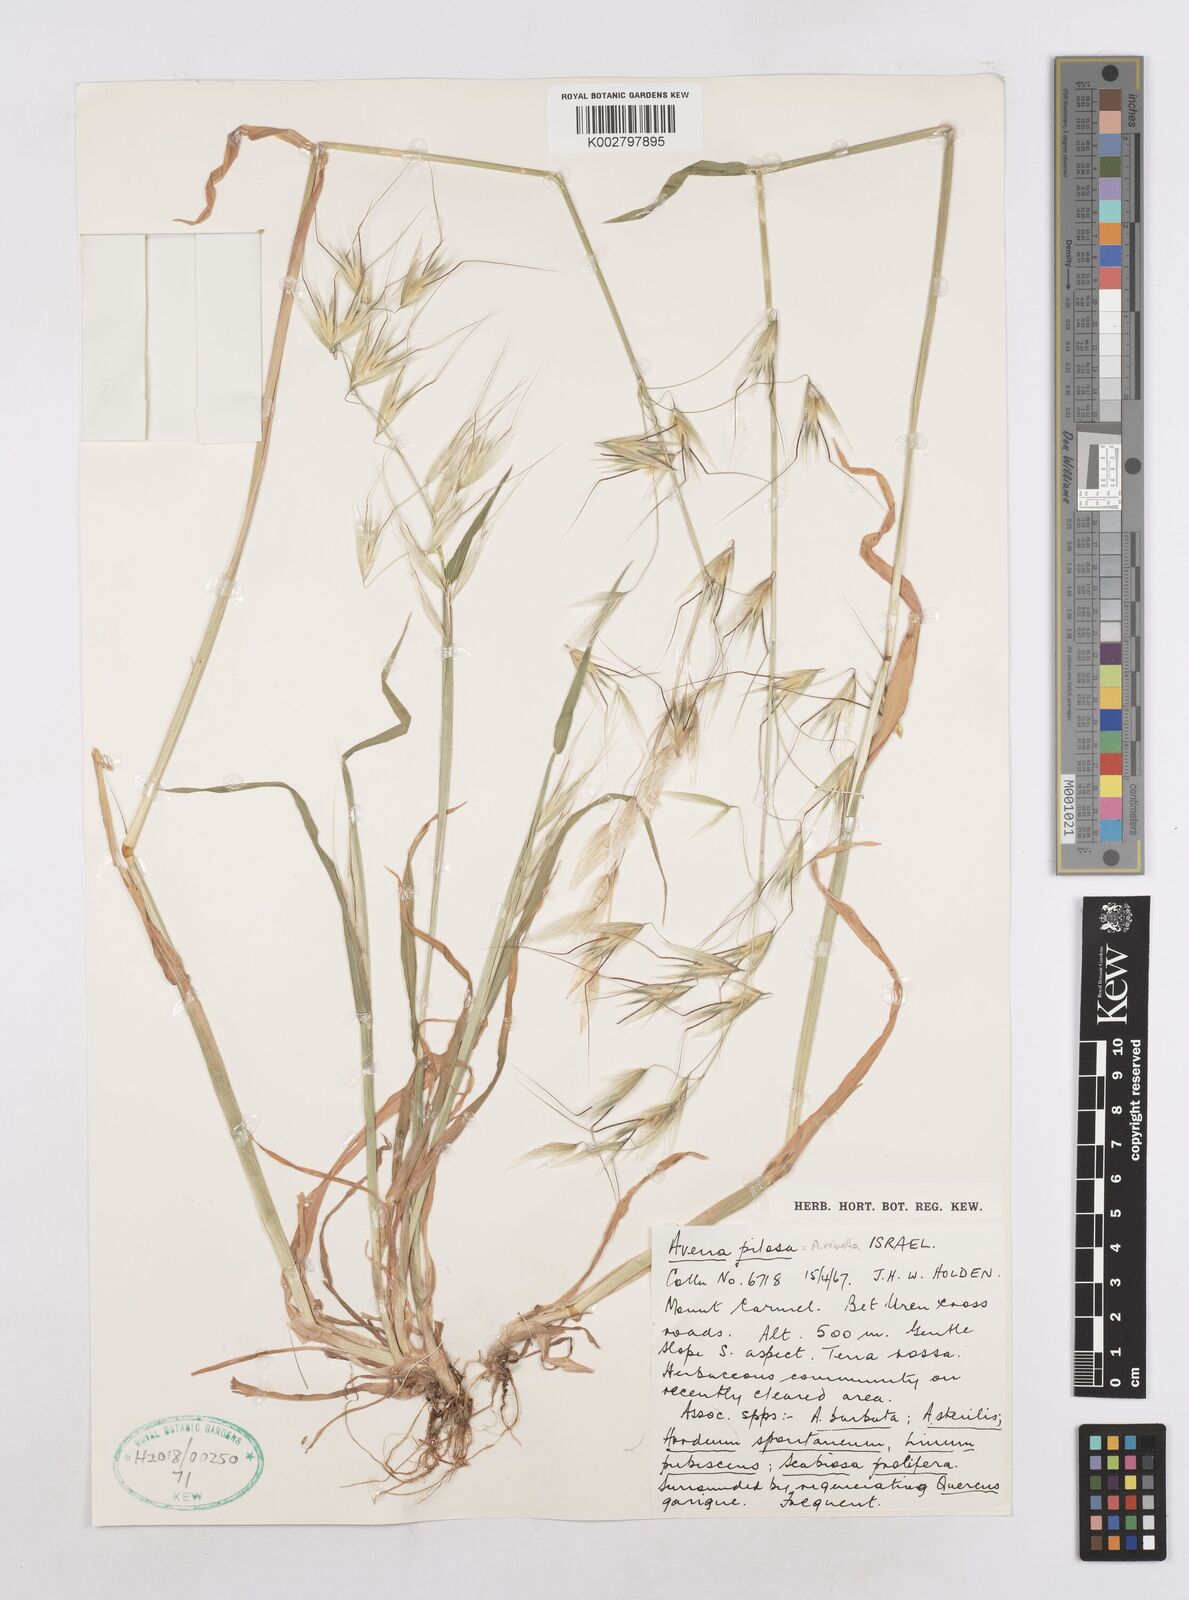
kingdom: Plantae
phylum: Tracheophyta
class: Liliopsida
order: Poales
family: Poaceae
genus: Avena
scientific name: Avena
